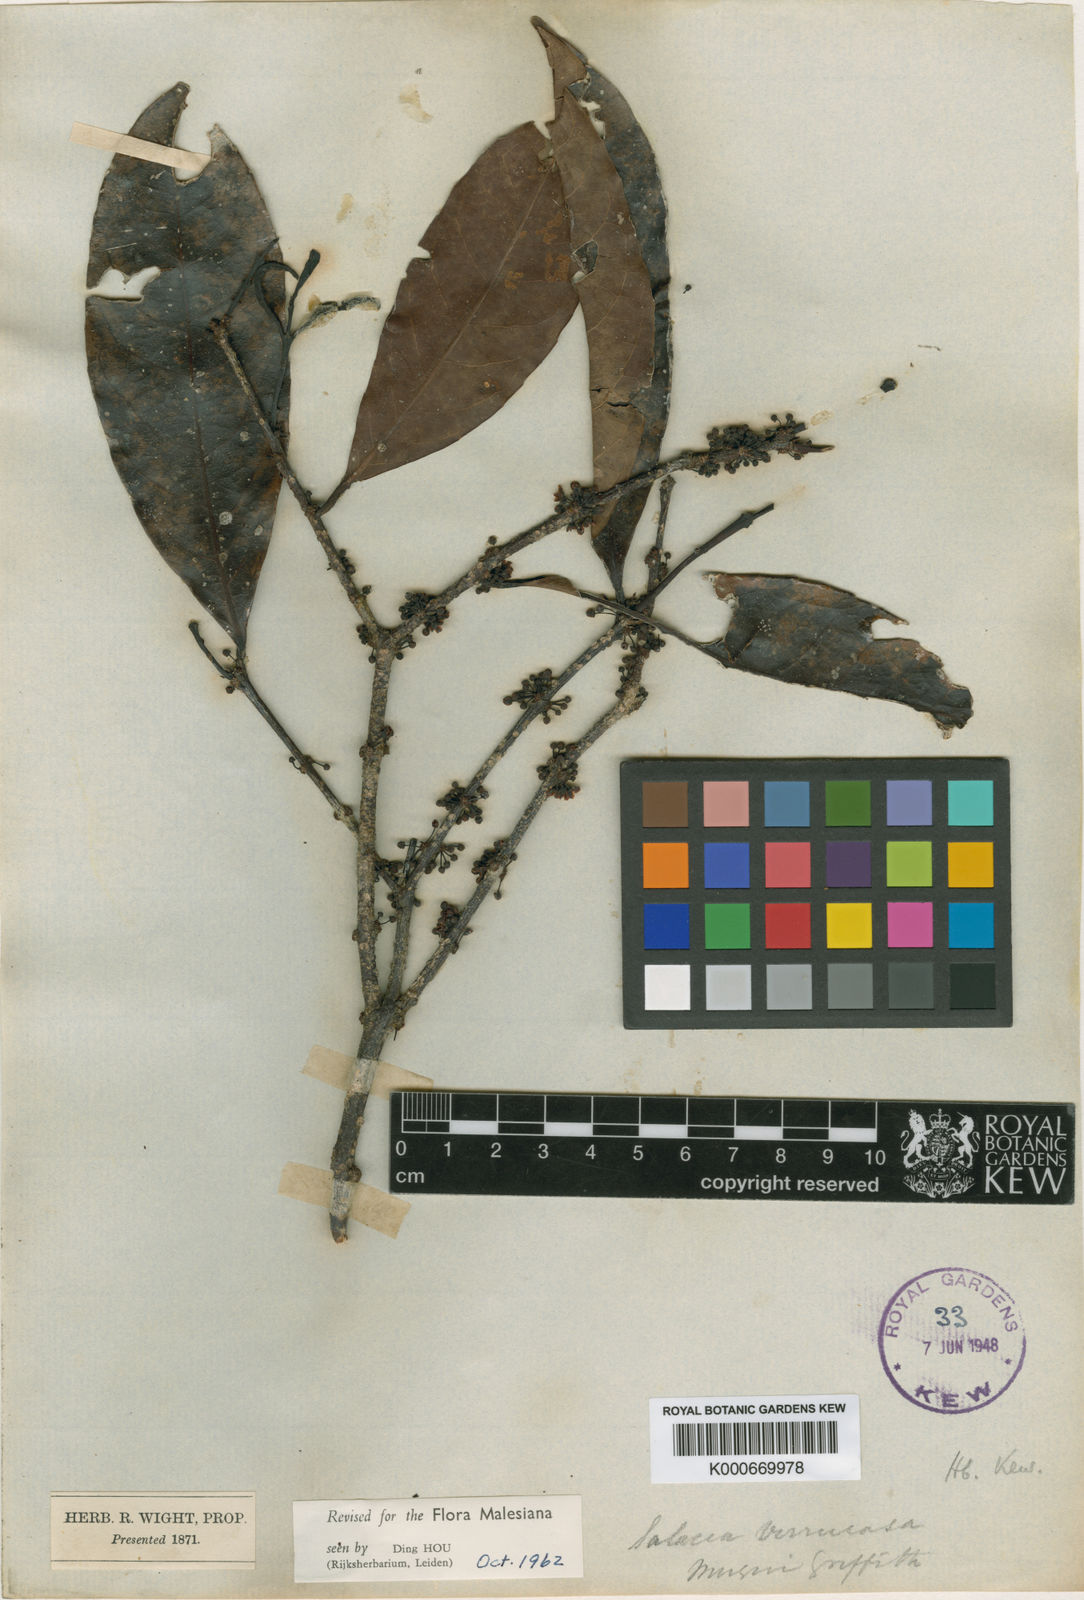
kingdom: Plantae
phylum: Tracheophyta
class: Magnoliopsida
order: Celastrales
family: Celastraceae
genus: Salacia
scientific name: Salacia verrucosa
